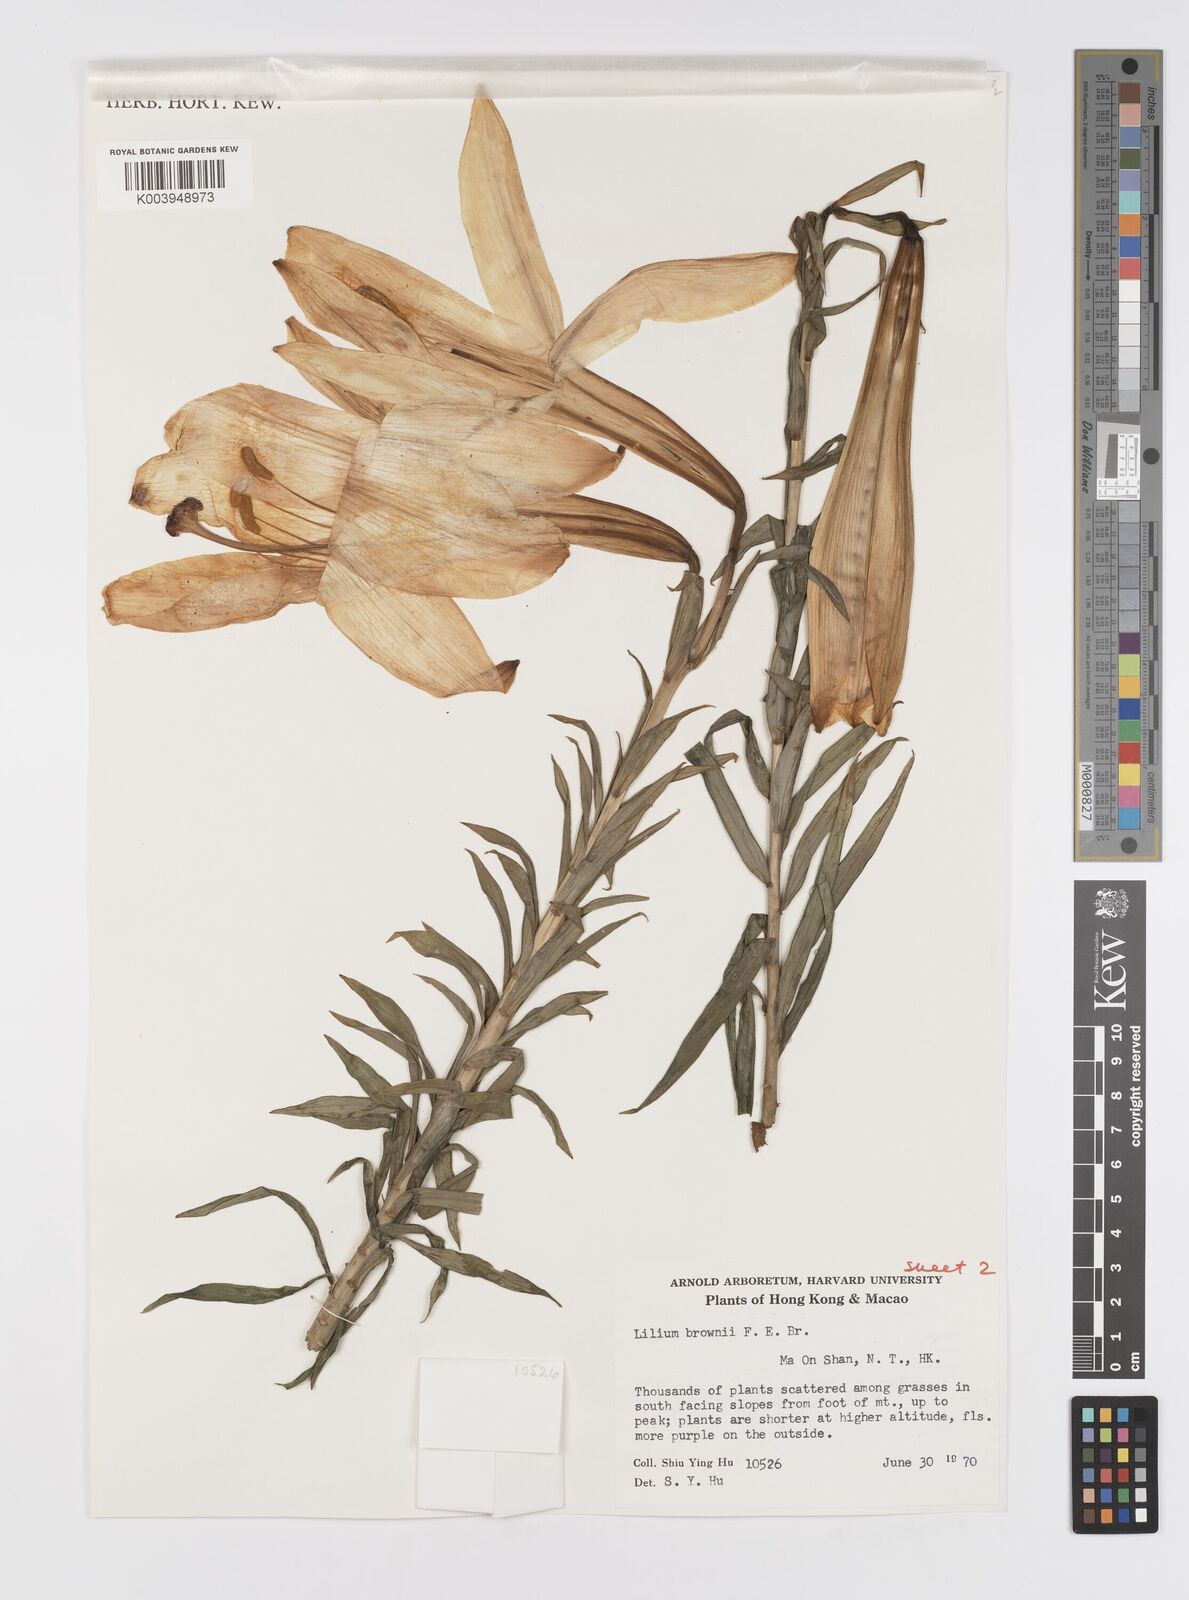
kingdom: Plantae
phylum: Tracheophyta
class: Liliopsida
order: Liliales
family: Liliaceae
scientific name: Liliaceae
